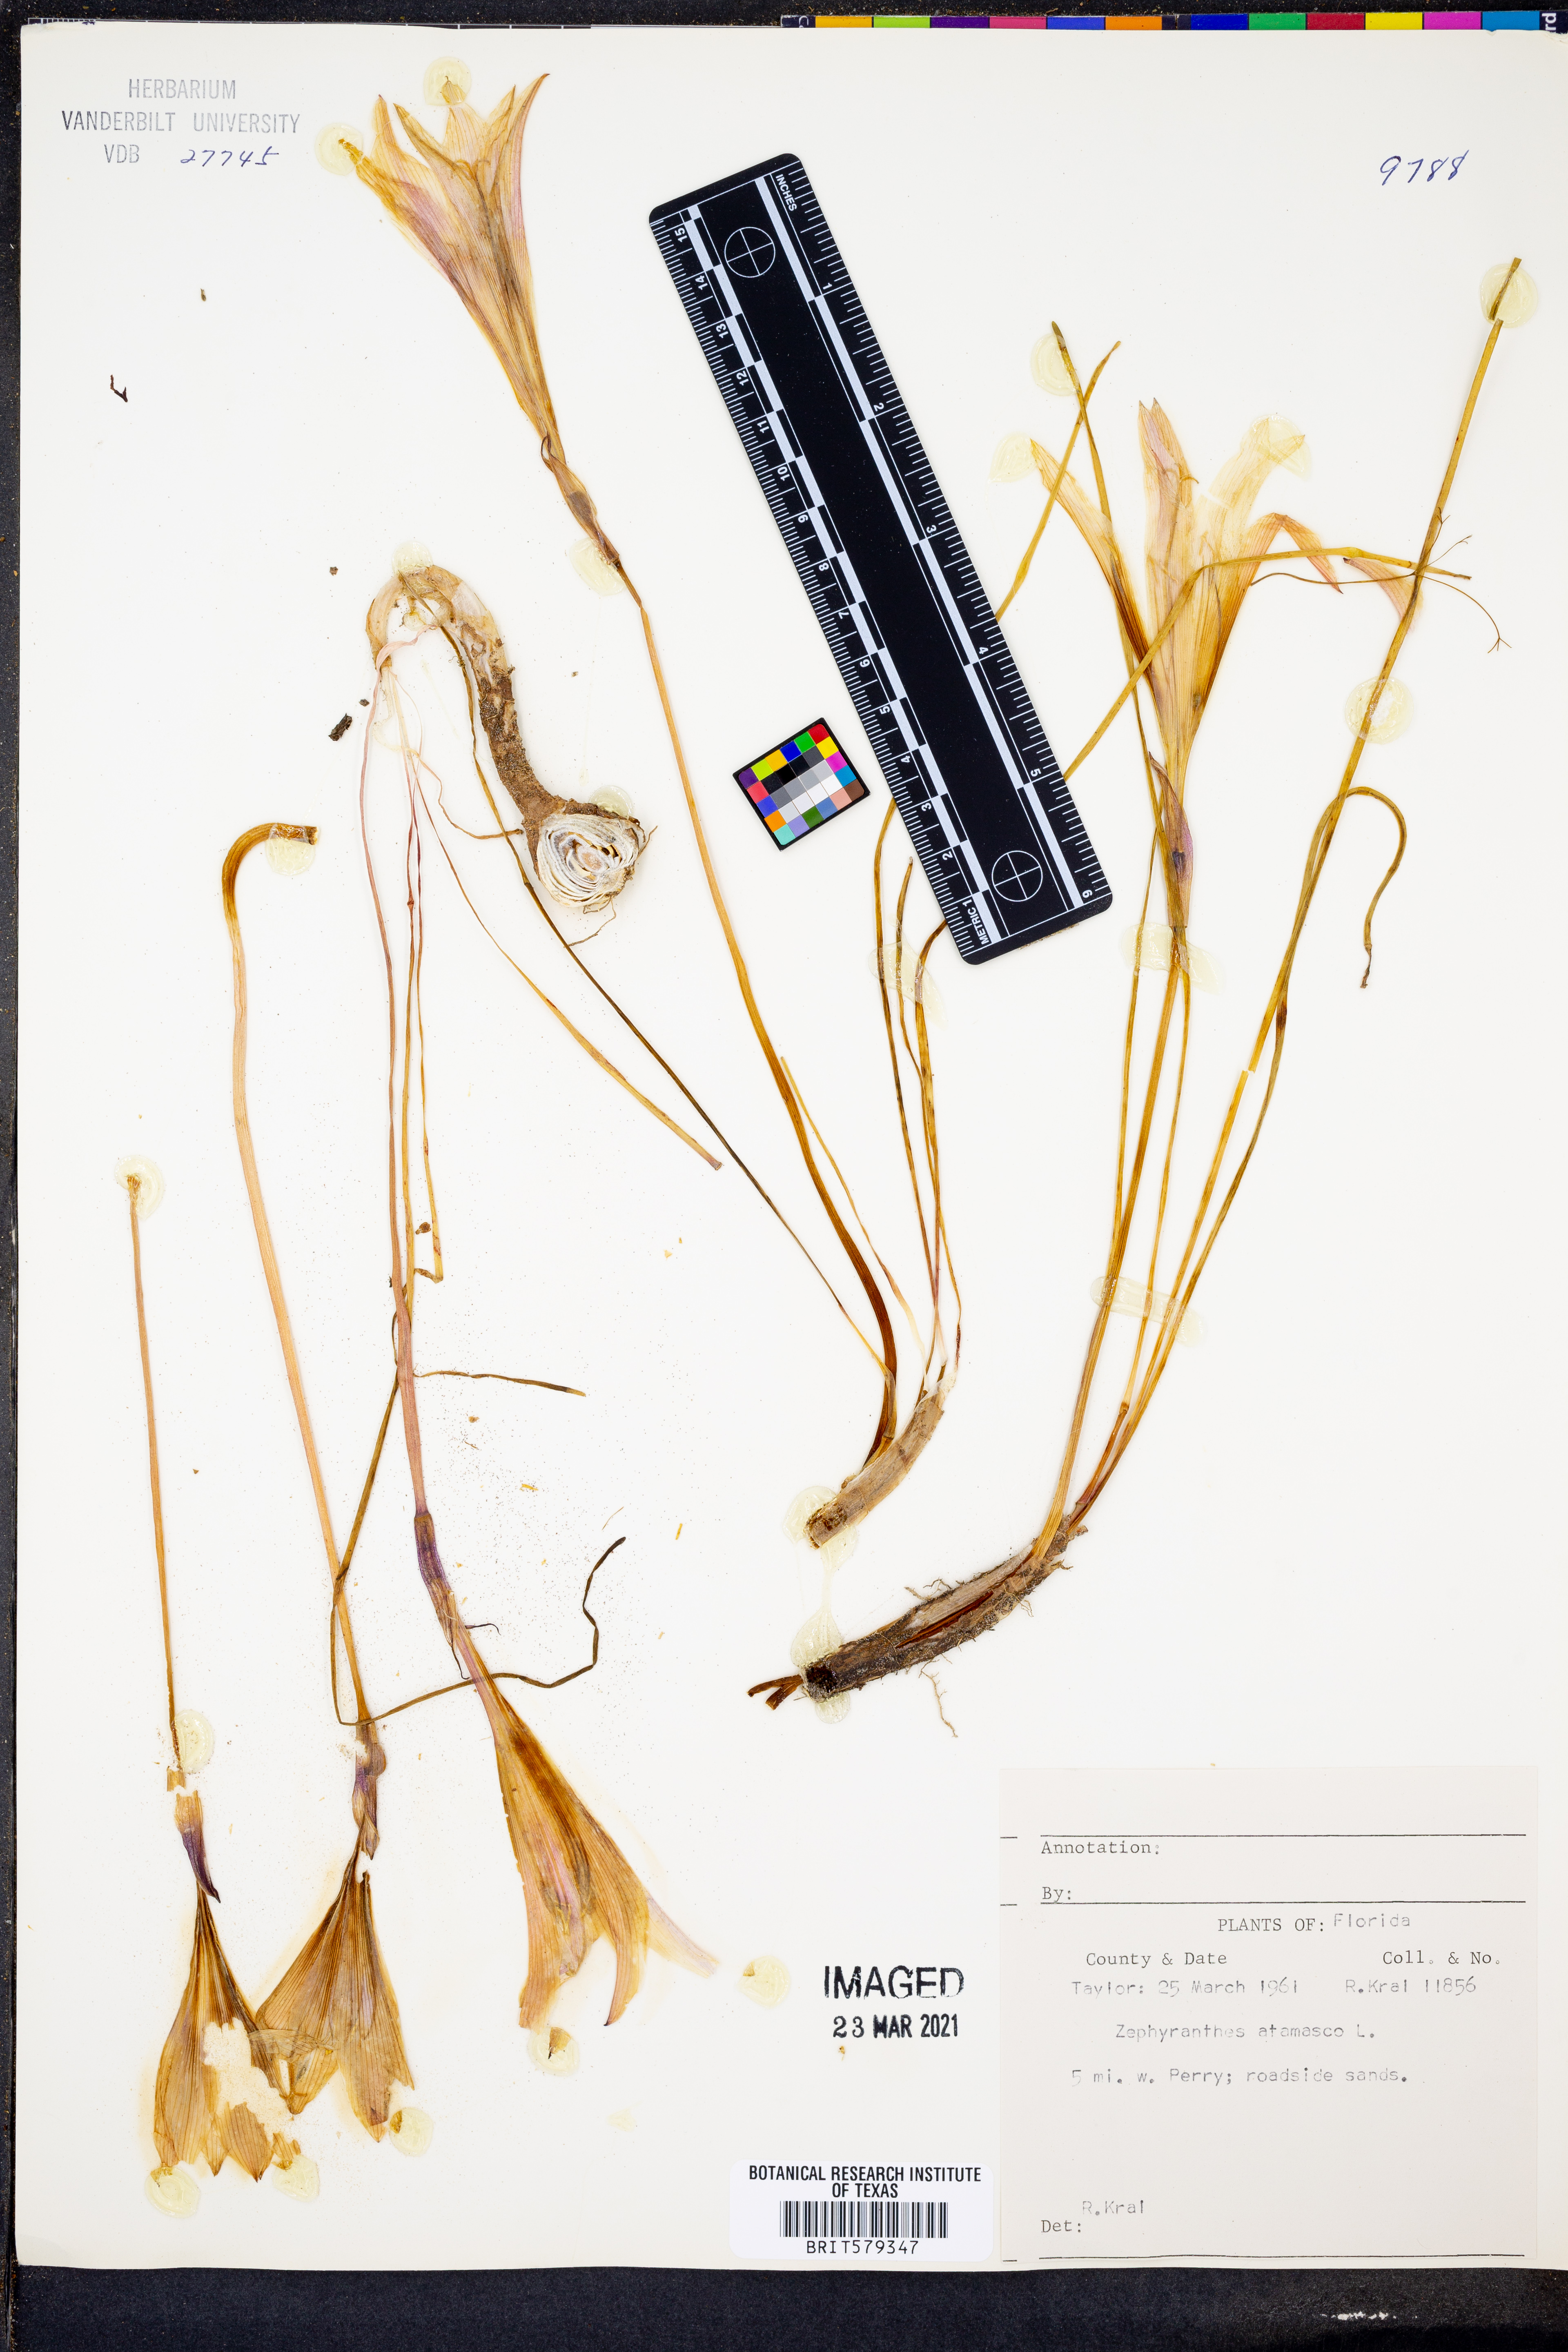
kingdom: Plantae
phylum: Tracheophyta
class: Liliopsida
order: Asparagales
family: Amaryllidaceae
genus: Zephyranthes
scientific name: Zephyranthes atamasco
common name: Atamasco lily
